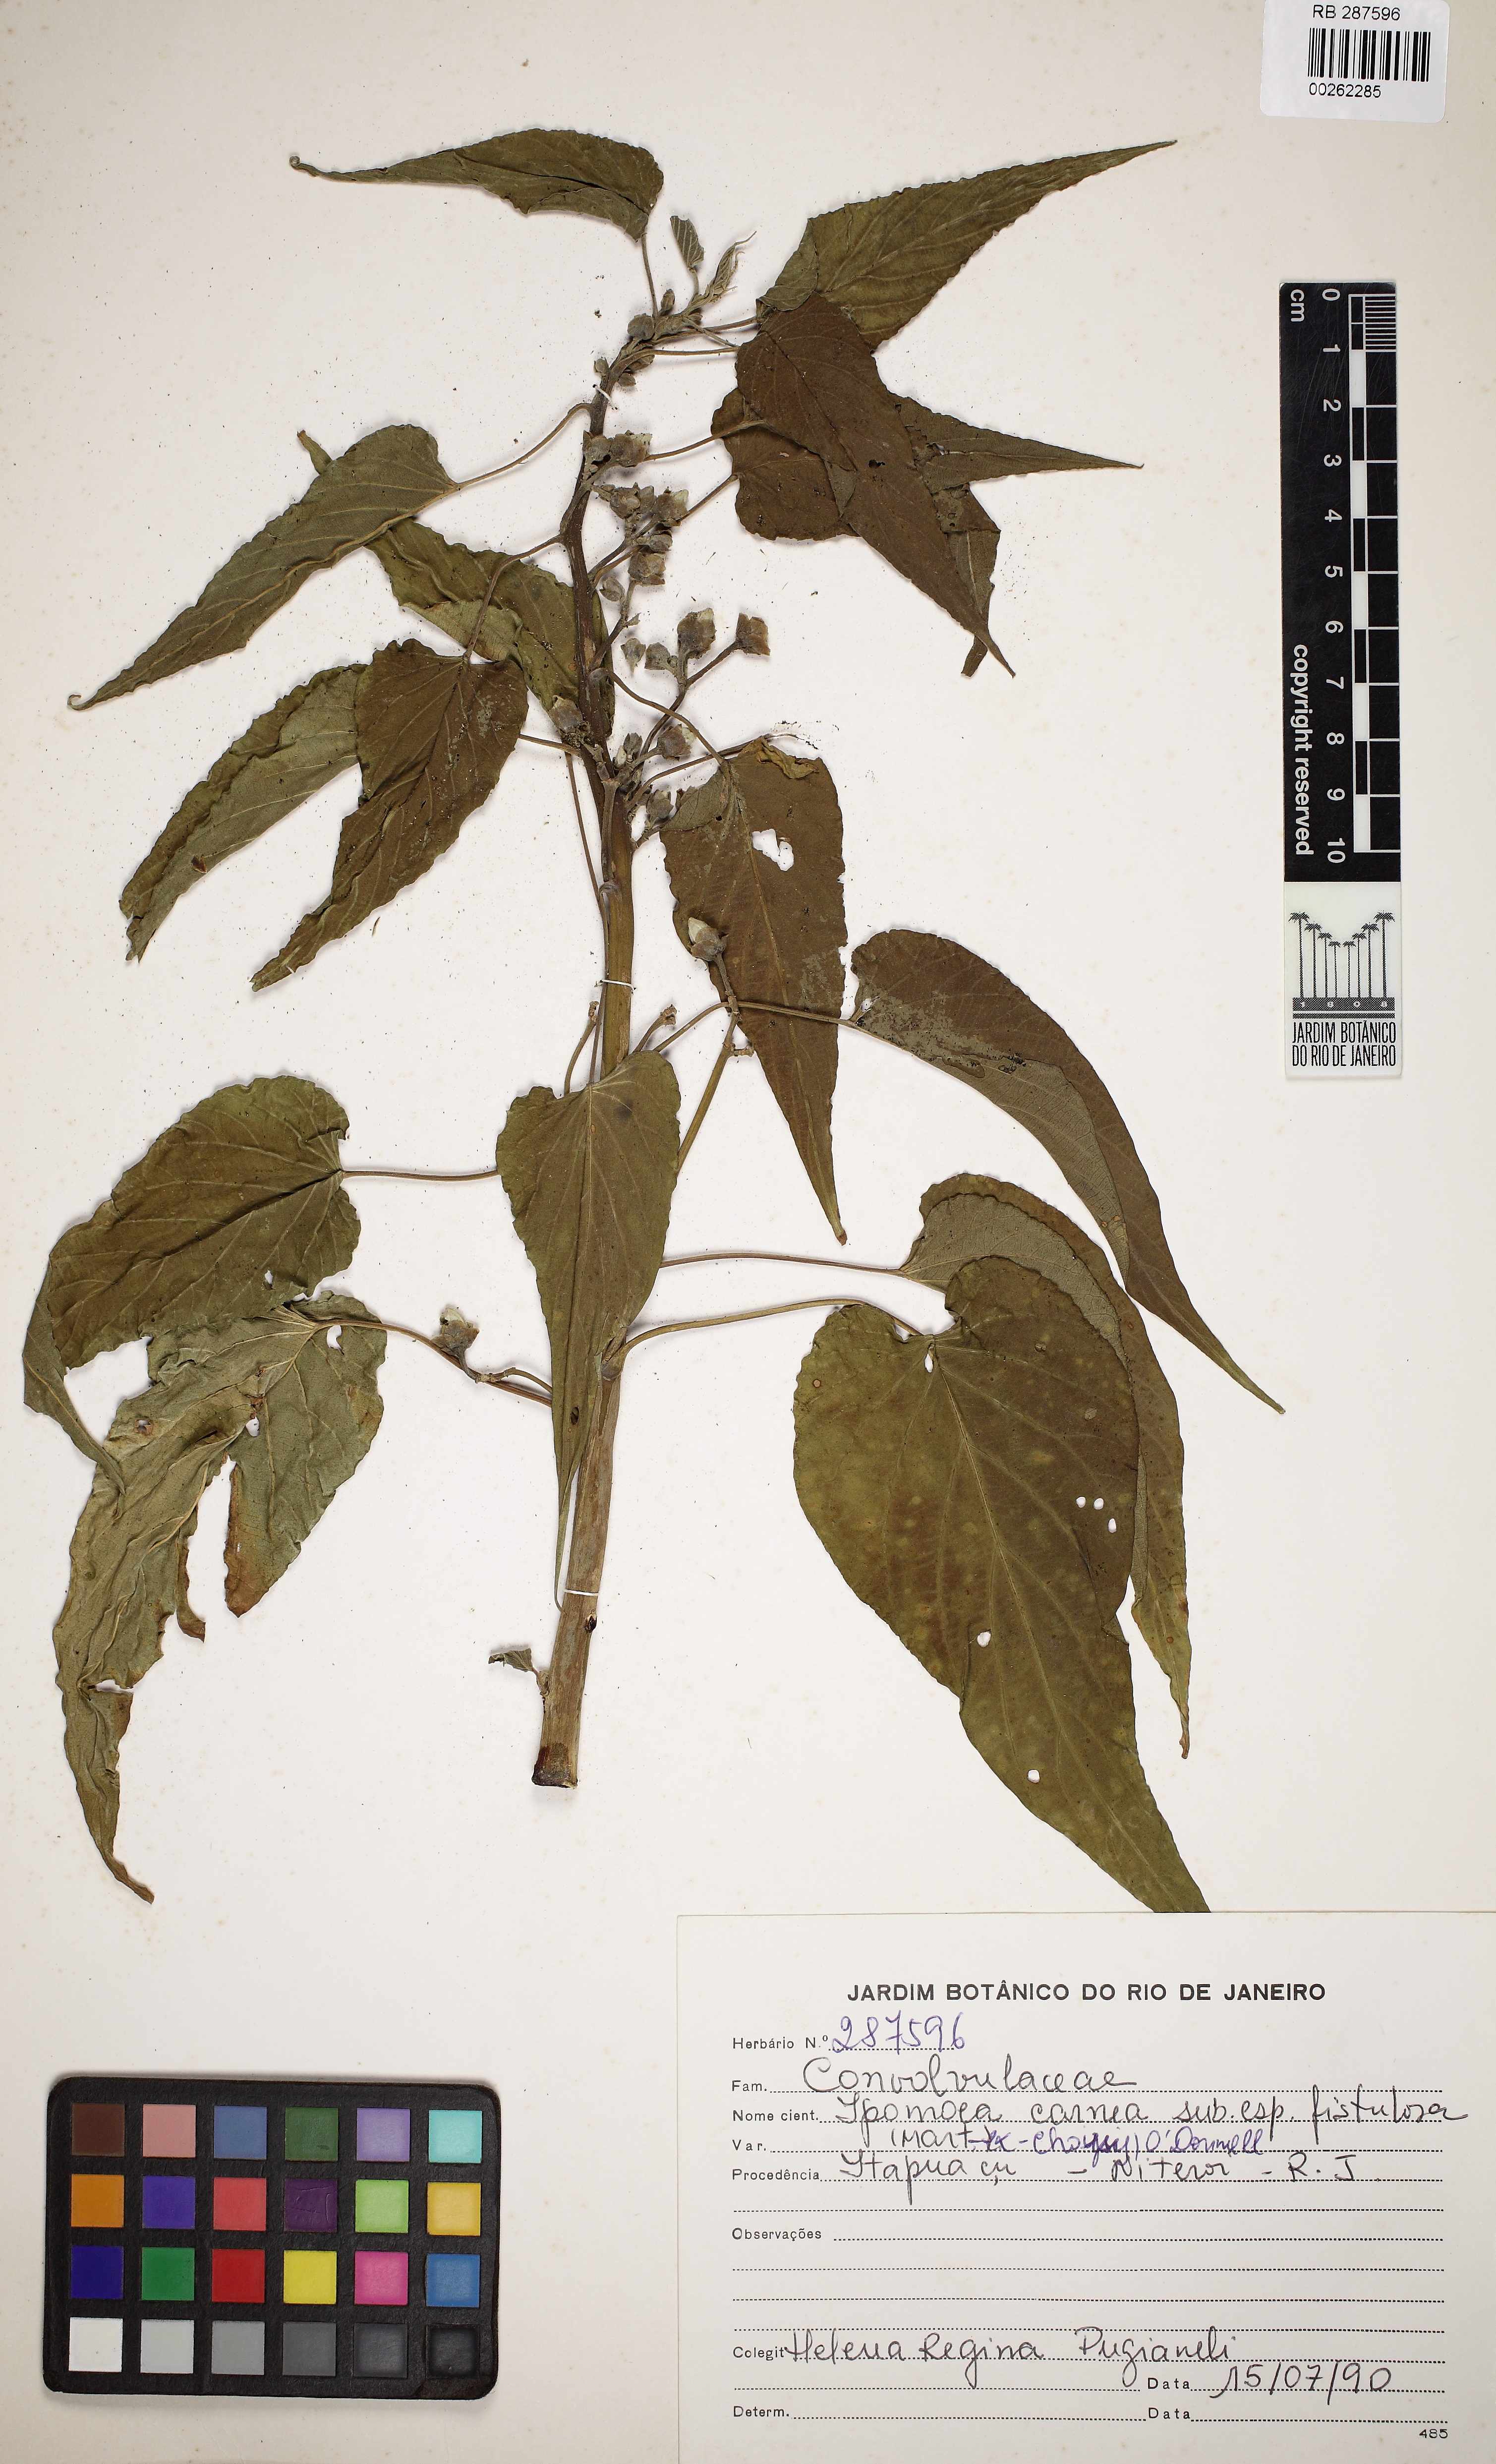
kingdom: Plantae
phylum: Tracheophyta
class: Magnoliopsida
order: Solanales
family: Convolvulaceae
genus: Ipomoea
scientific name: Ipomoea carnea
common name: Morning-glory
